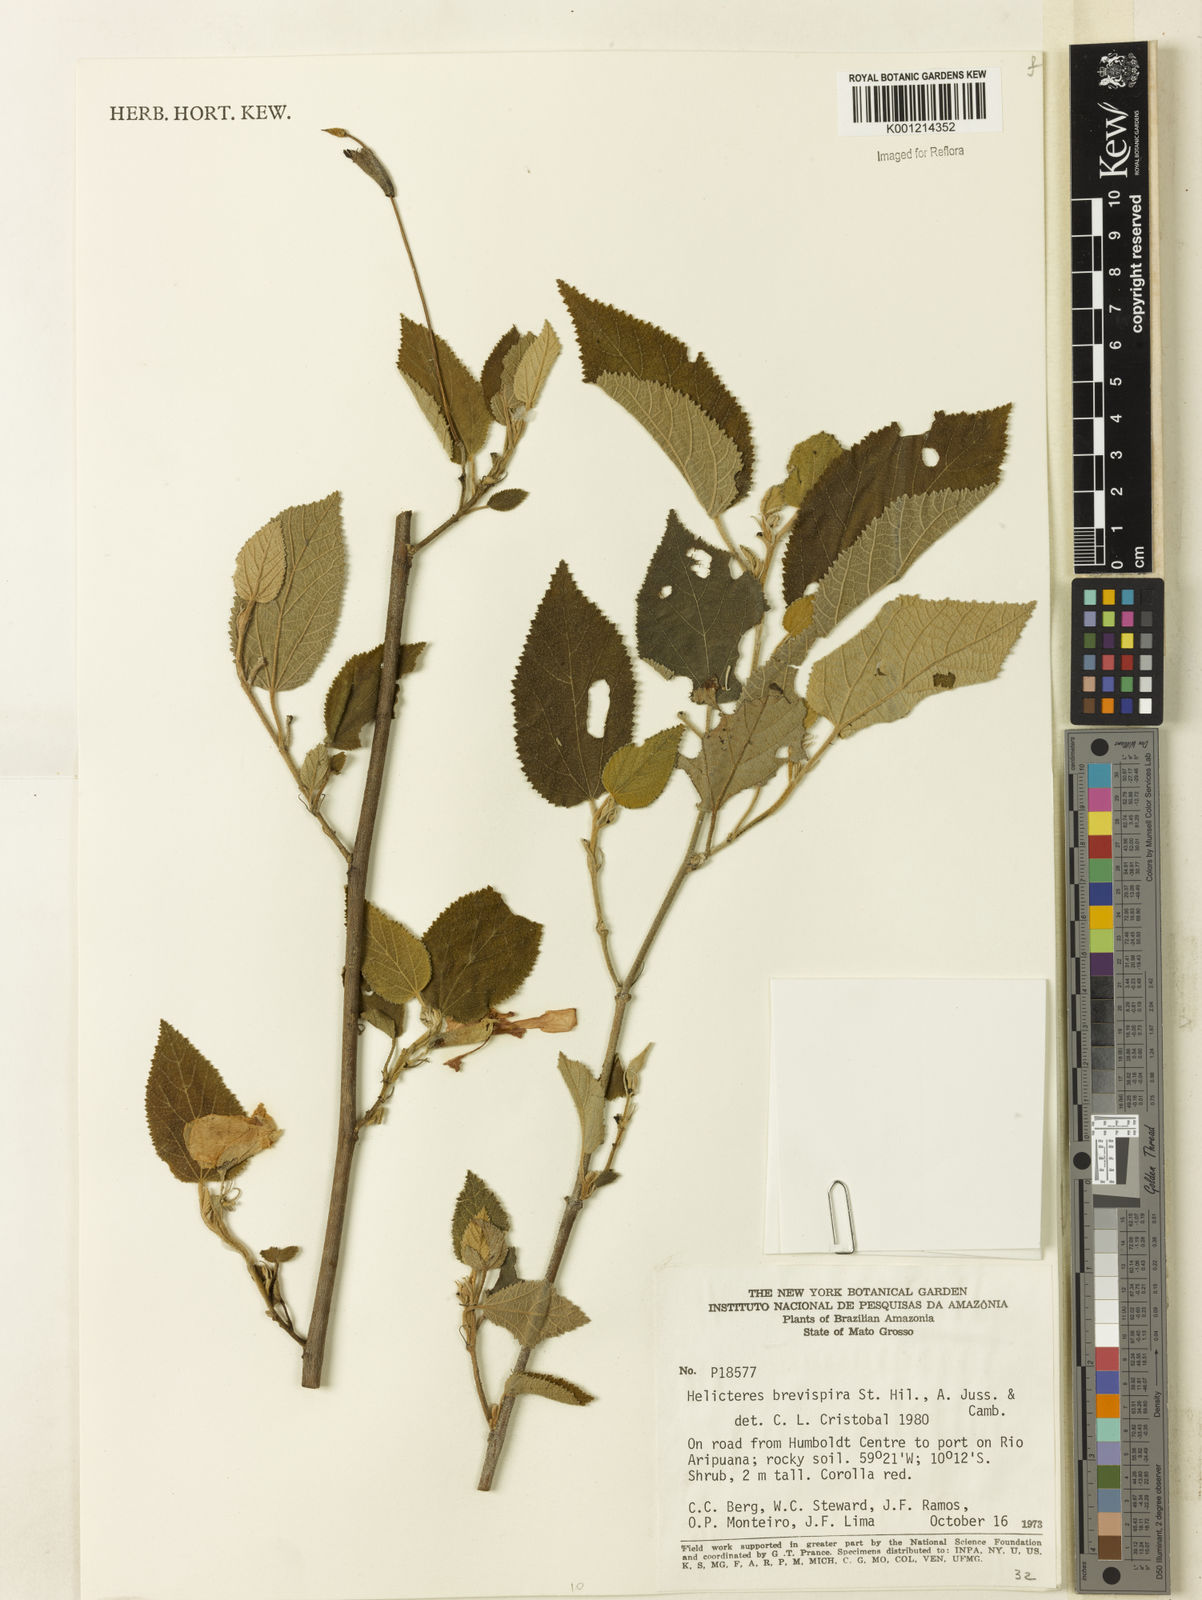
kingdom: Plantae
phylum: Tracheophyta
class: Magnoliopsida
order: Malvales
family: Malvaceae
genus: Helicteres
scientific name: Helicteres
